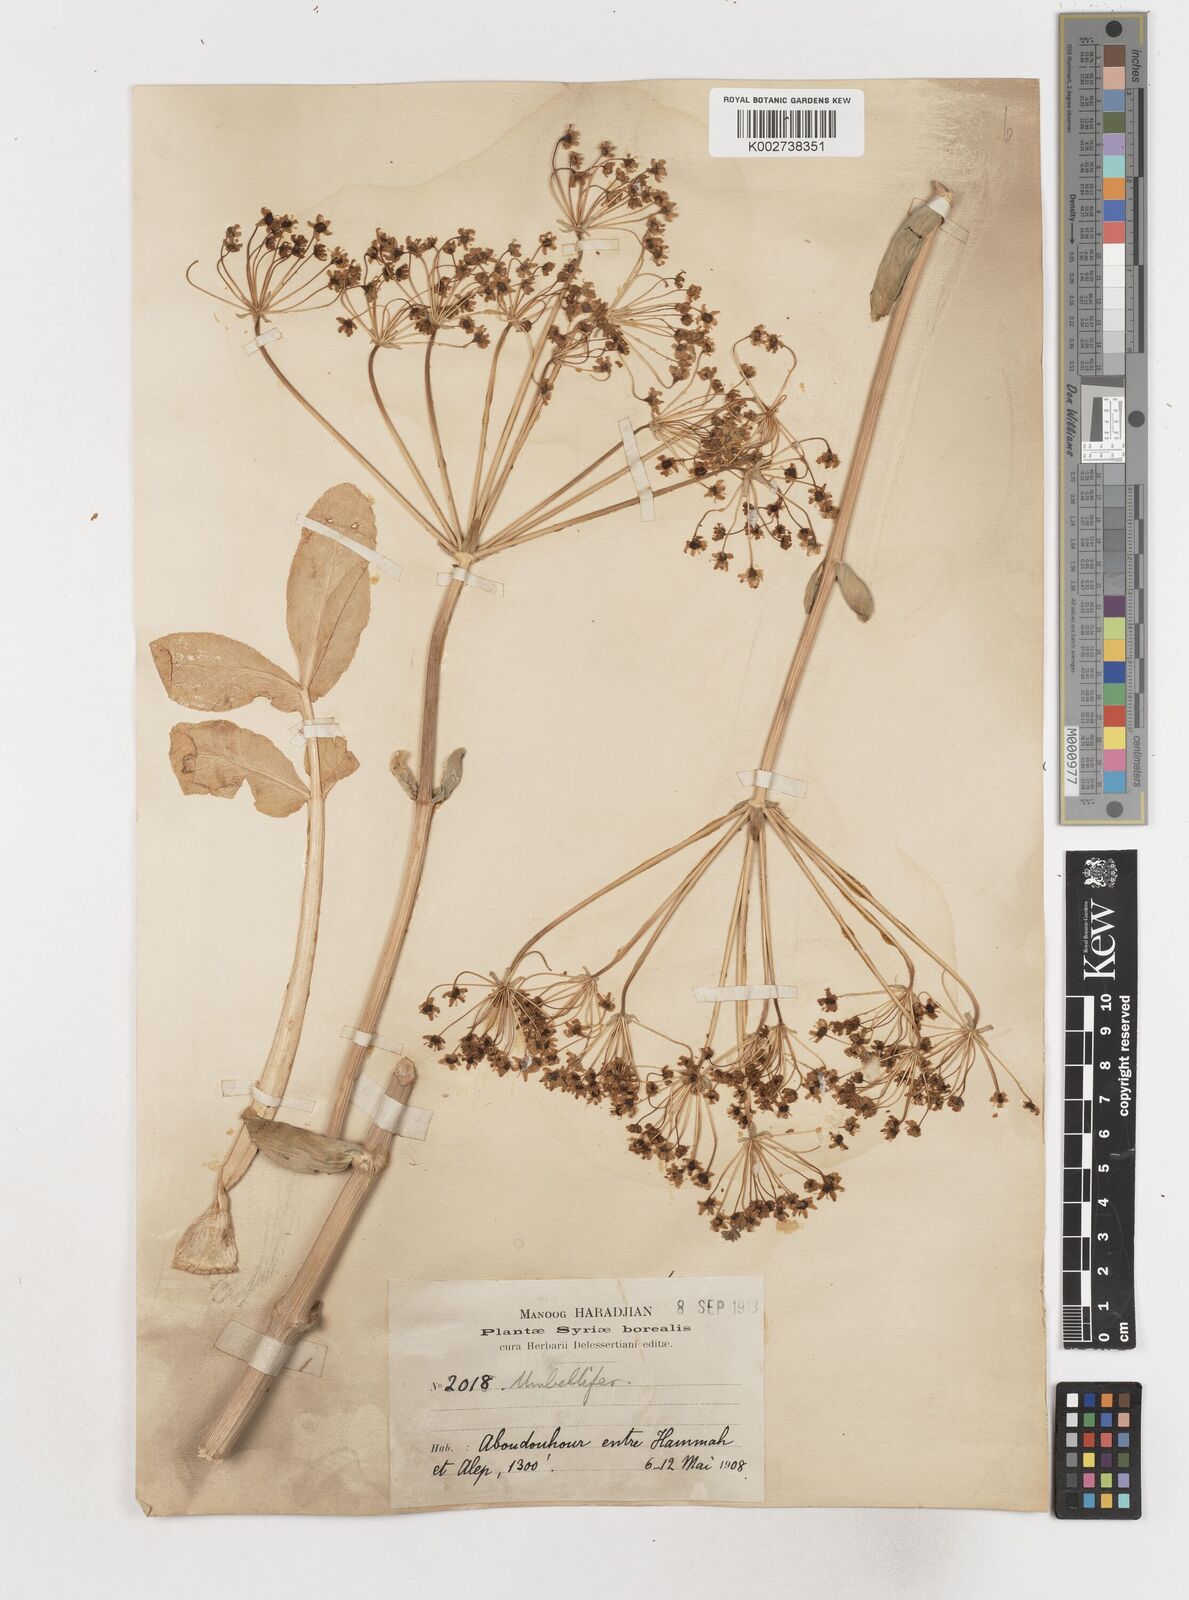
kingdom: Plantae
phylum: Tracheophyta
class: Magnoliopsida
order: Apiales
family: Apiaceae
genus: Heptaptera
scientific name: Heptaptera anisoptera
